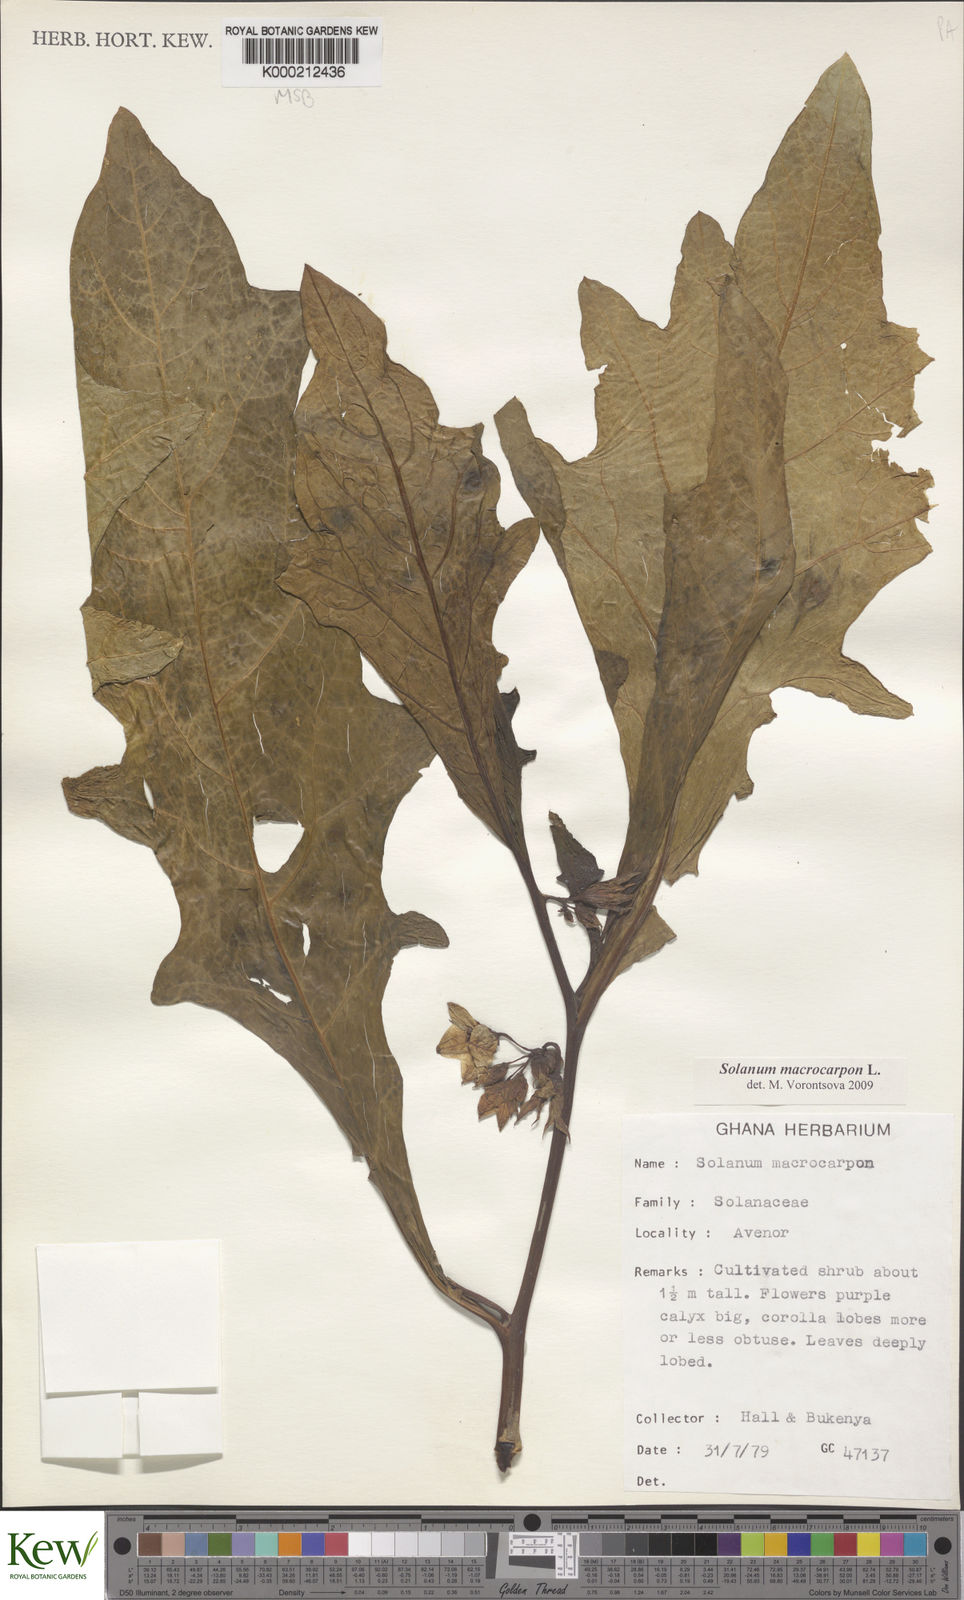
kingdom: Plantae
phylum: Tracheophyta
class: Magnoliopsida
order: Solanales
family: Solanaceae
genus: Solanum
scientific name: Solanum macrocarpon
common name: African eggplant
